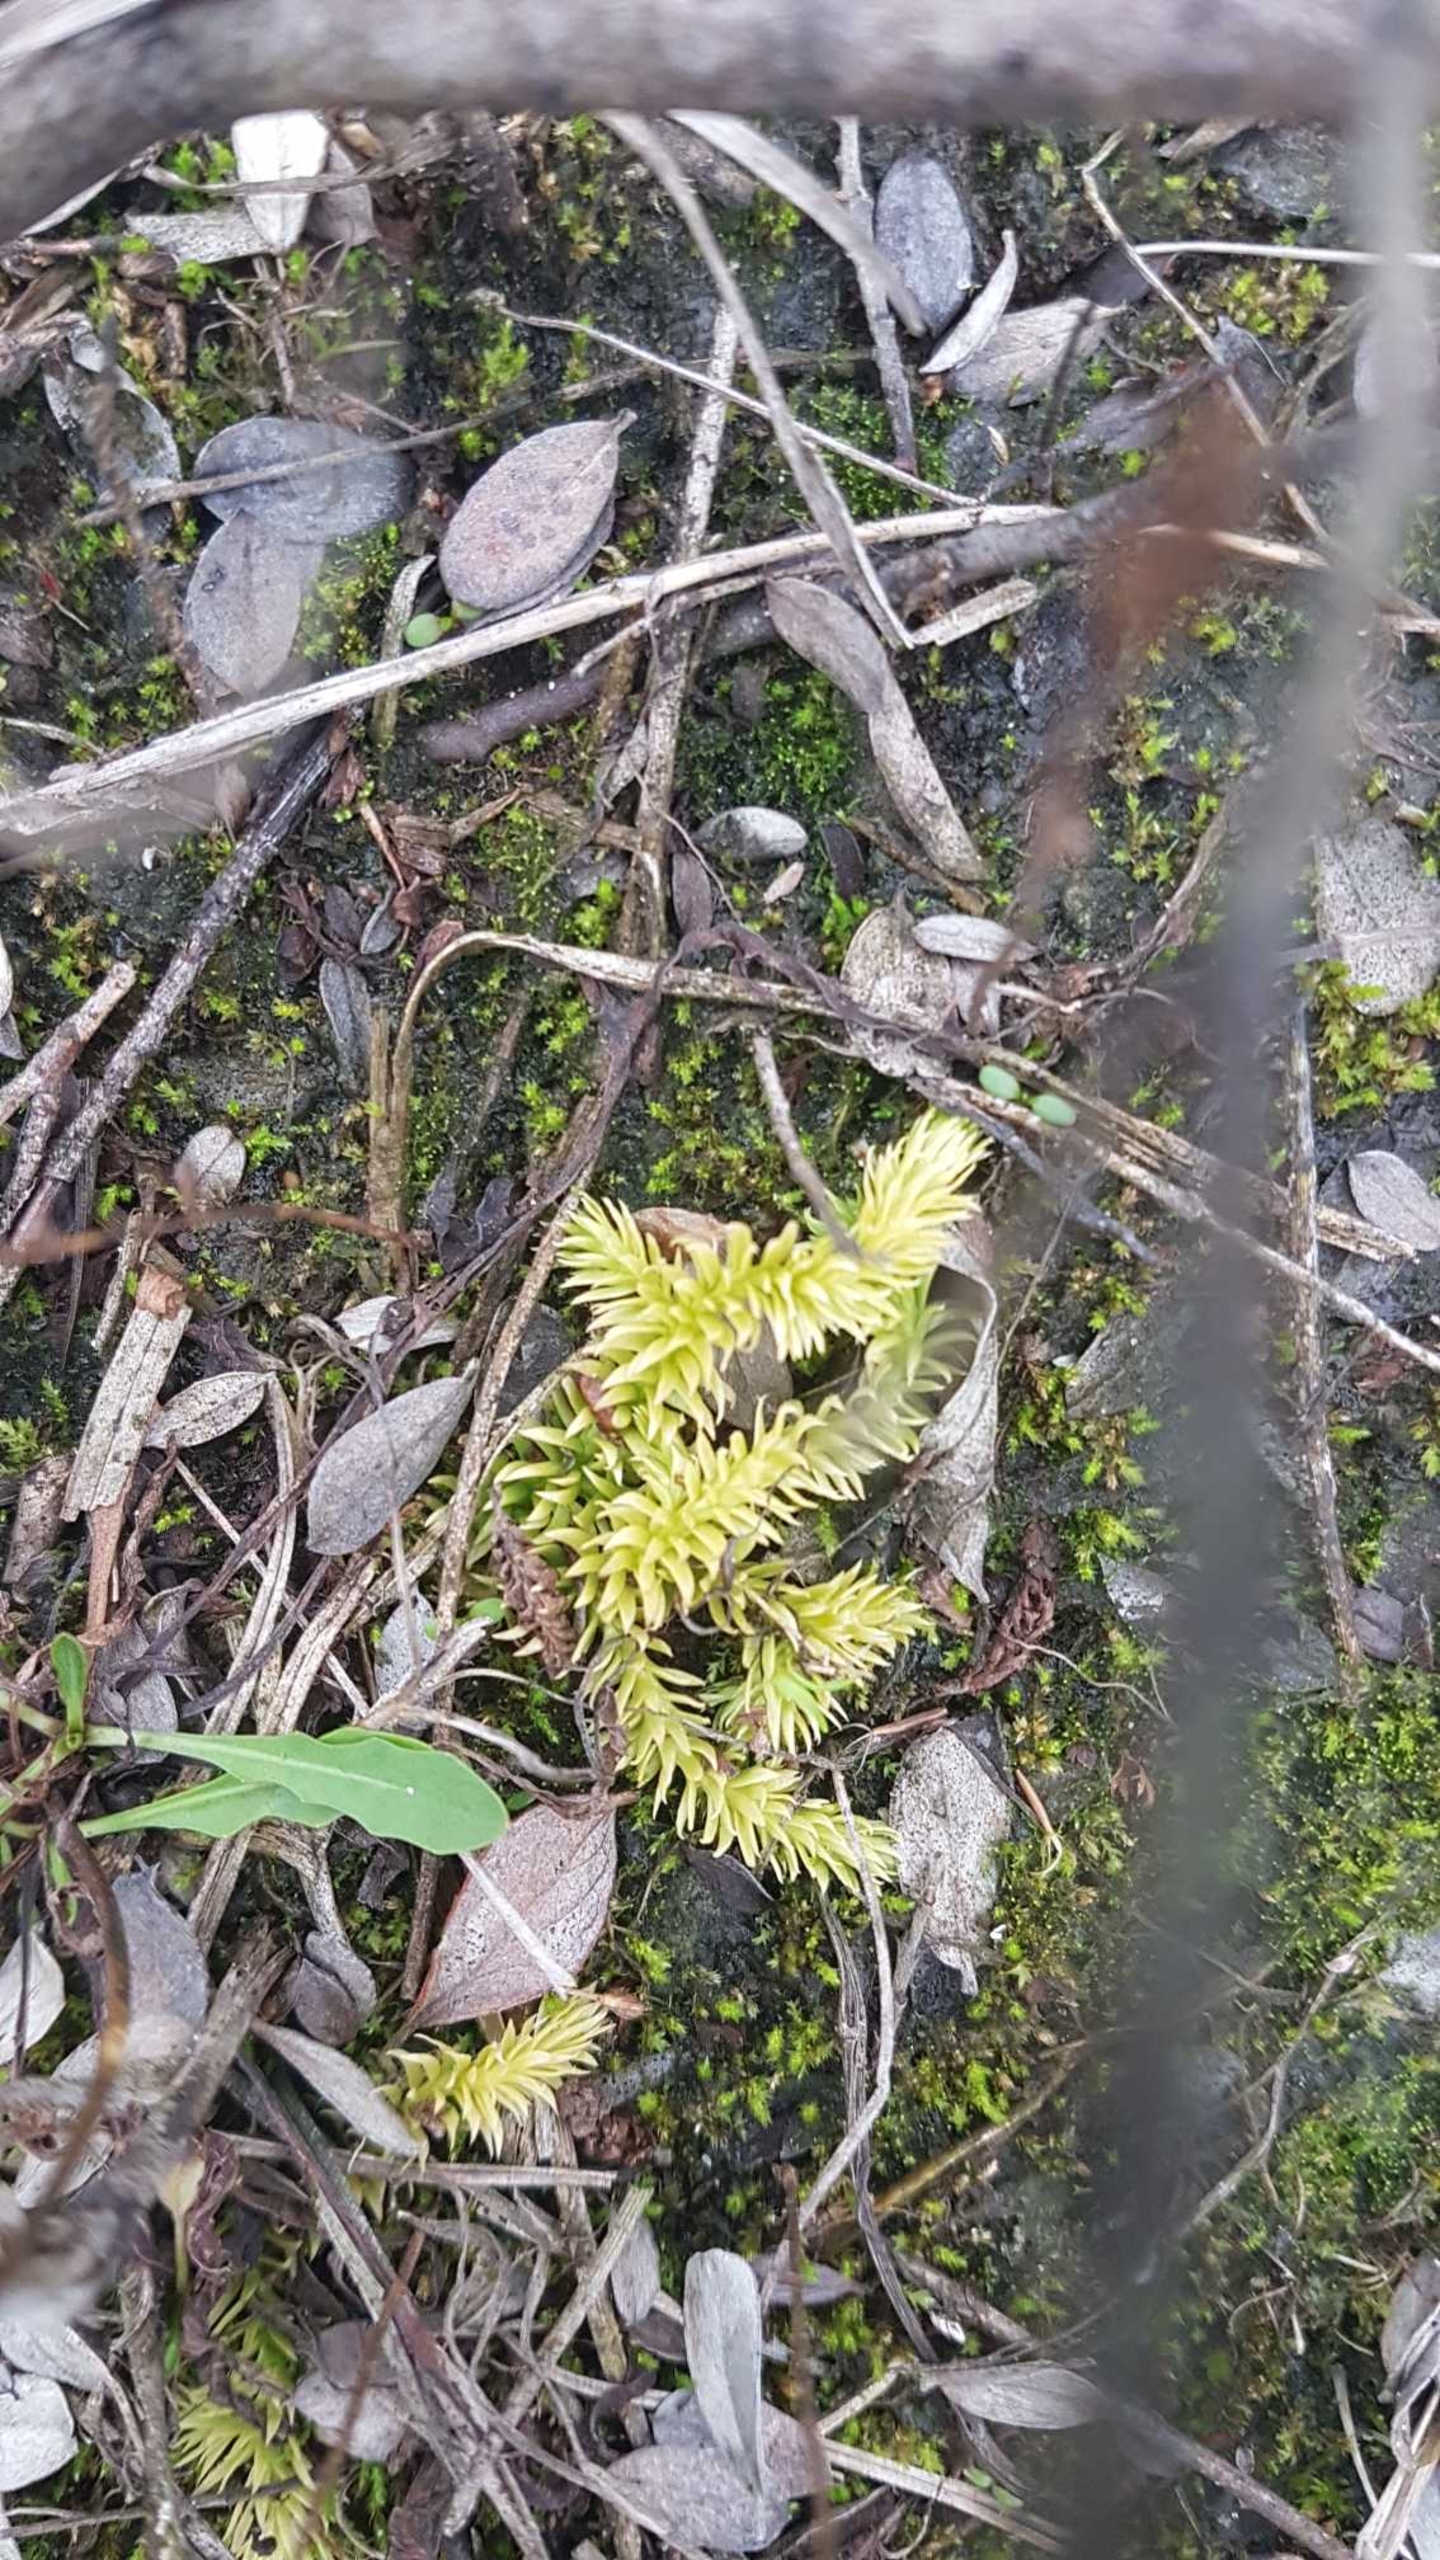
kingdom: Plantae
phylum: Tracheophyta
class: Lycopodiopsida
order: Lycopodiales
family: Lycopodiaceae
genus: Lycopodiella
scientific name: Lycopodiella inundata
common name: Liden ulvefod
